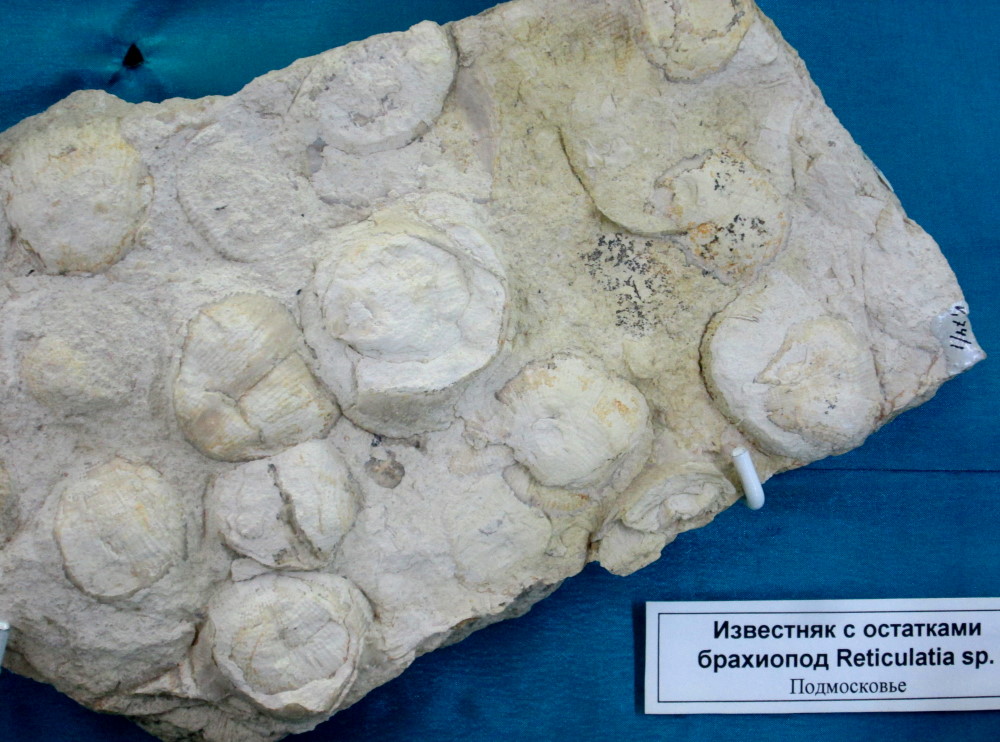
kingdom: Animalia
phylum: Brachiopoda
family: Daviesiellidae
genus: Reticulatia
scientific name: Reticulatia
